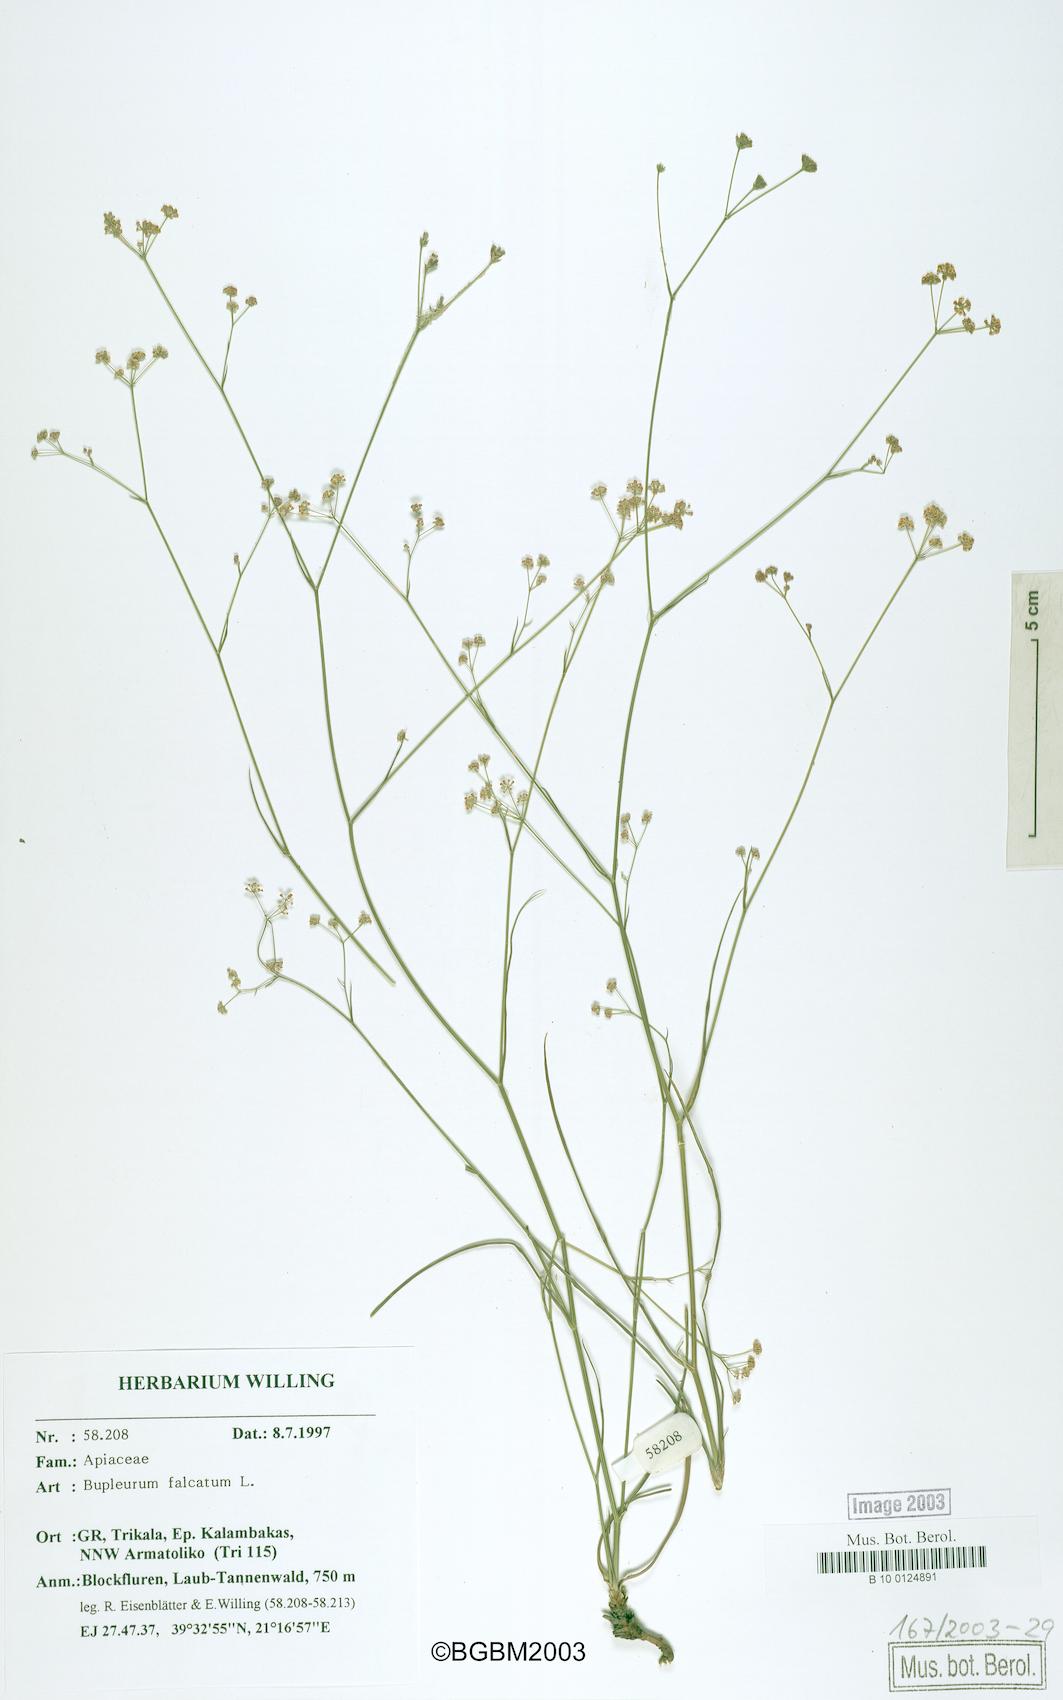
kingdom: Plantae
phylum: Tracheophyta
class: Magnoliopsida
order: Apiales
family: Apiaceae
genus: Bupleurum
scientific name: Bupleurum falcatum
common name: Sickle-leaved hare's-ear
